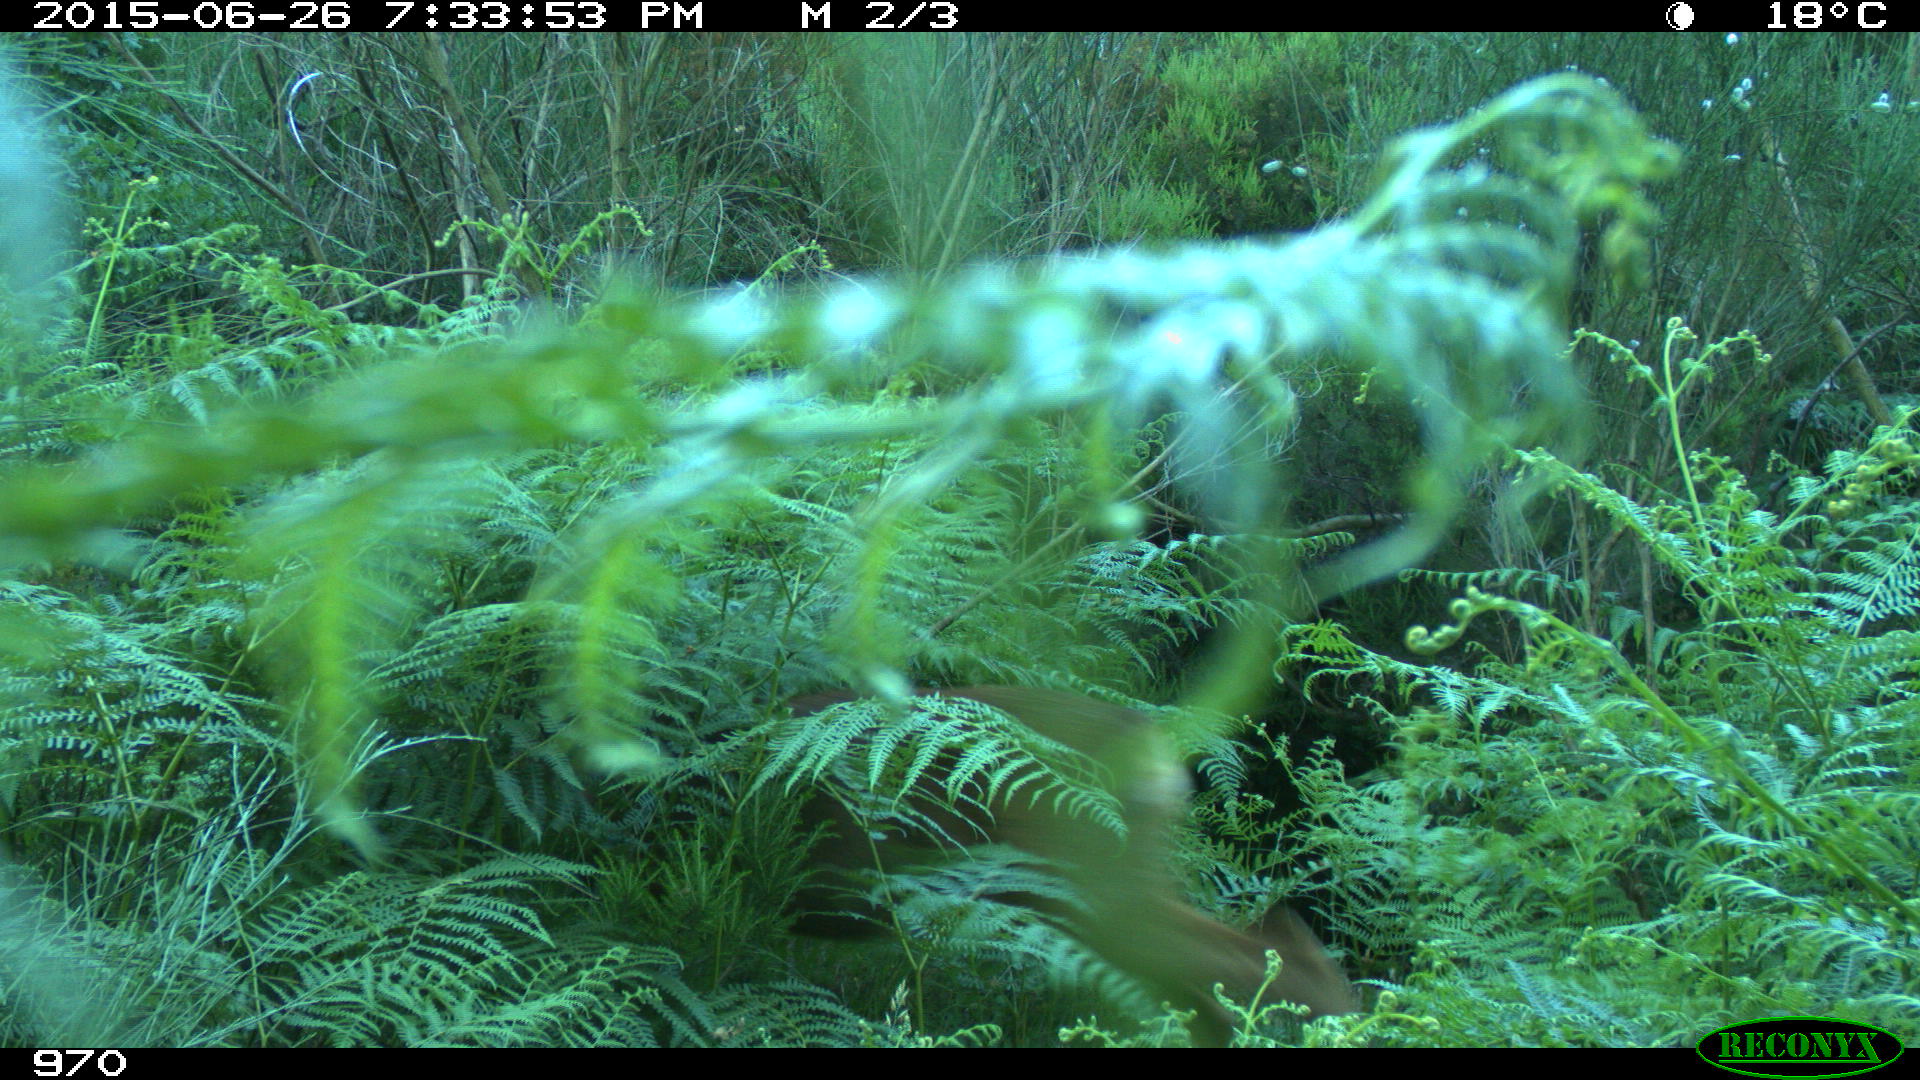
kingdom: Animalia
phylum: Chordata
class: Mammalia
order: Artiodactyla
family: Cervidae
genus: Capreolus
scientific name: Capreolus capreolus
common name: Western roe deer
